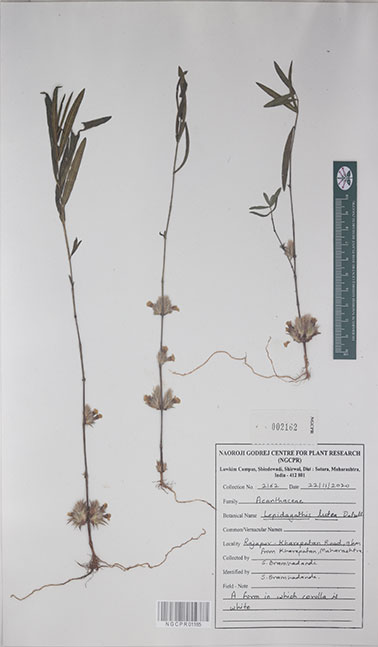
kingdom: Plantae
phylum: Tracheophyta
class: Magnoliopsida
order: Lamiales
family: Acanthaceae
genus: Lepidagathis
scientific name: Lepidagathis lutea
